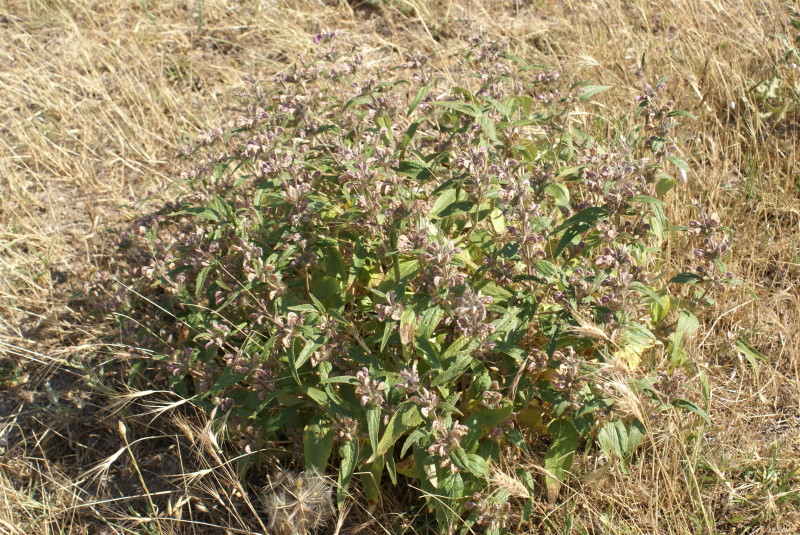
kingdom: Plantae
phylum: Tracheophyta
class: Magnoliopsida
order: Lamiales
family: Lamiaceae
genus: Phlomis
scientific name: Phlomis herba-venti
